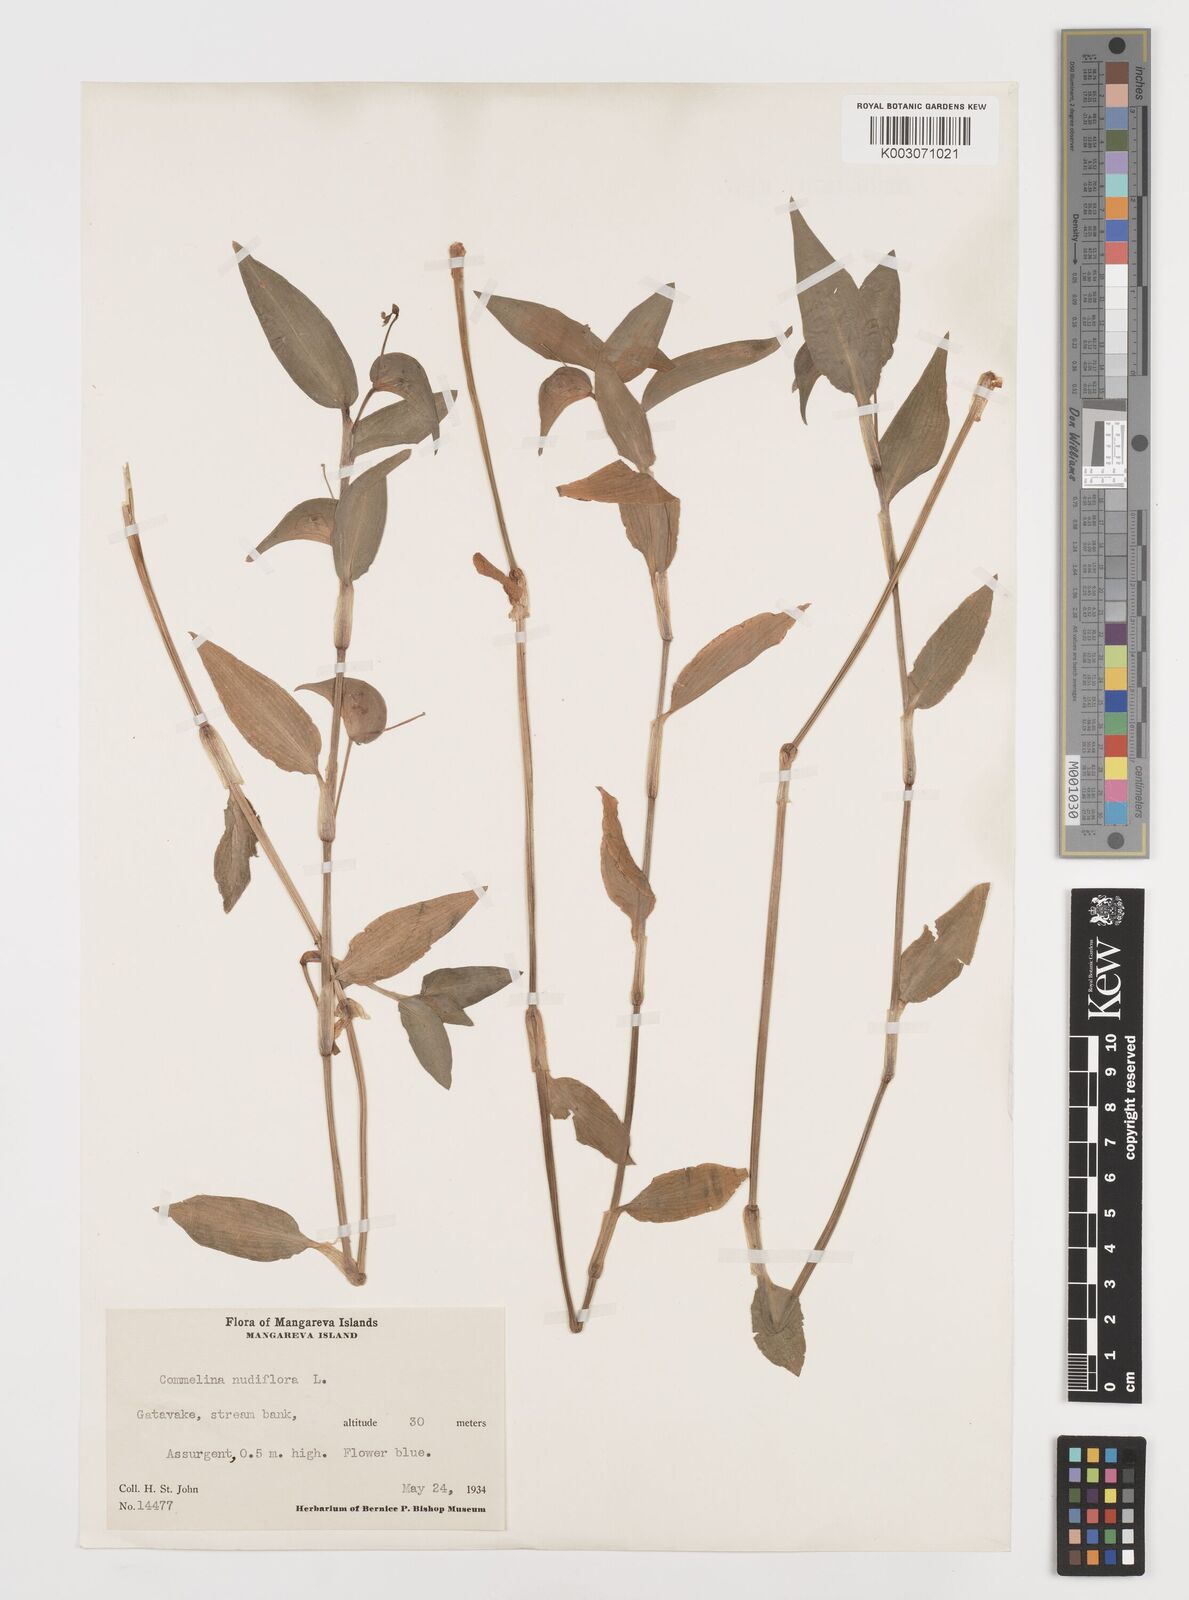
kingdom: Plantae
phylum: Tracheophyta
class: Liliopsida
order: Commelinales
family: Commelinaceae
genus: Commelina
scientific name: Commelina diffusa
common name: Climbing dayflower
